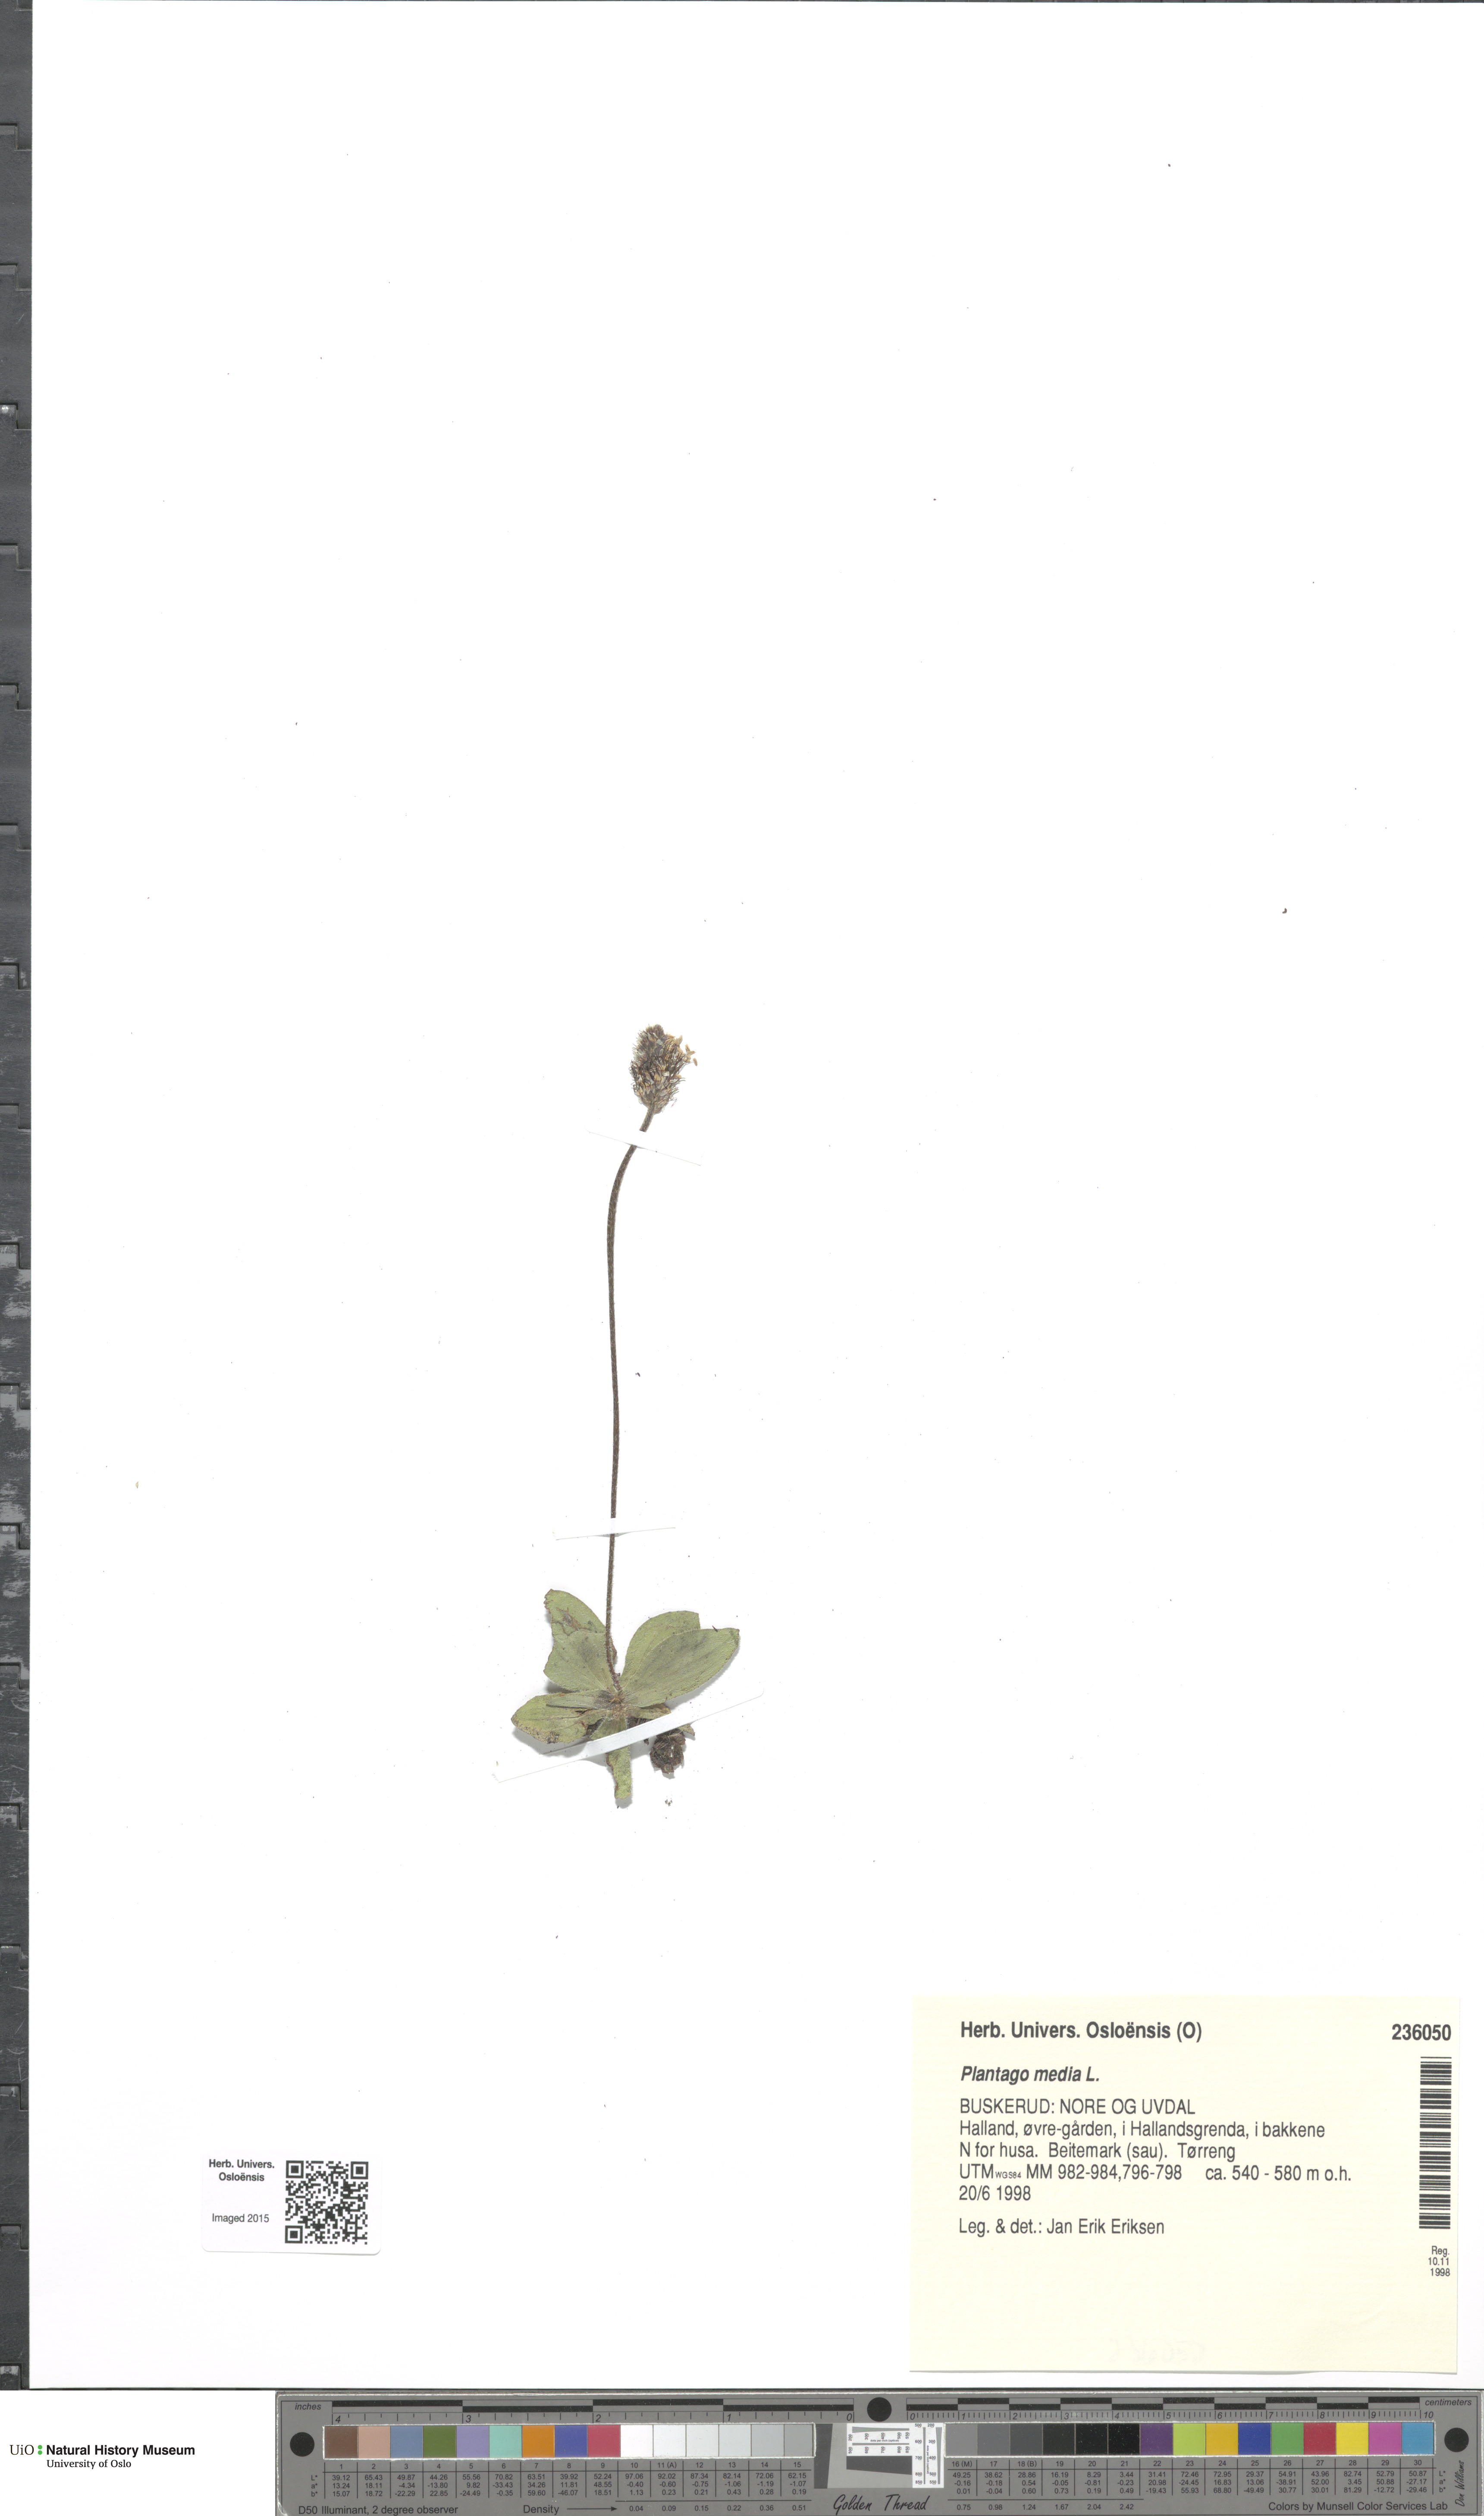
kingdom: Plantae
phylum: Tracheophyta
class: Magnoliopsida
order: Lamiales
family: Plantaginaceae
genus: Plantago
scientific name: Plantago media
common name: Hoary plantain
